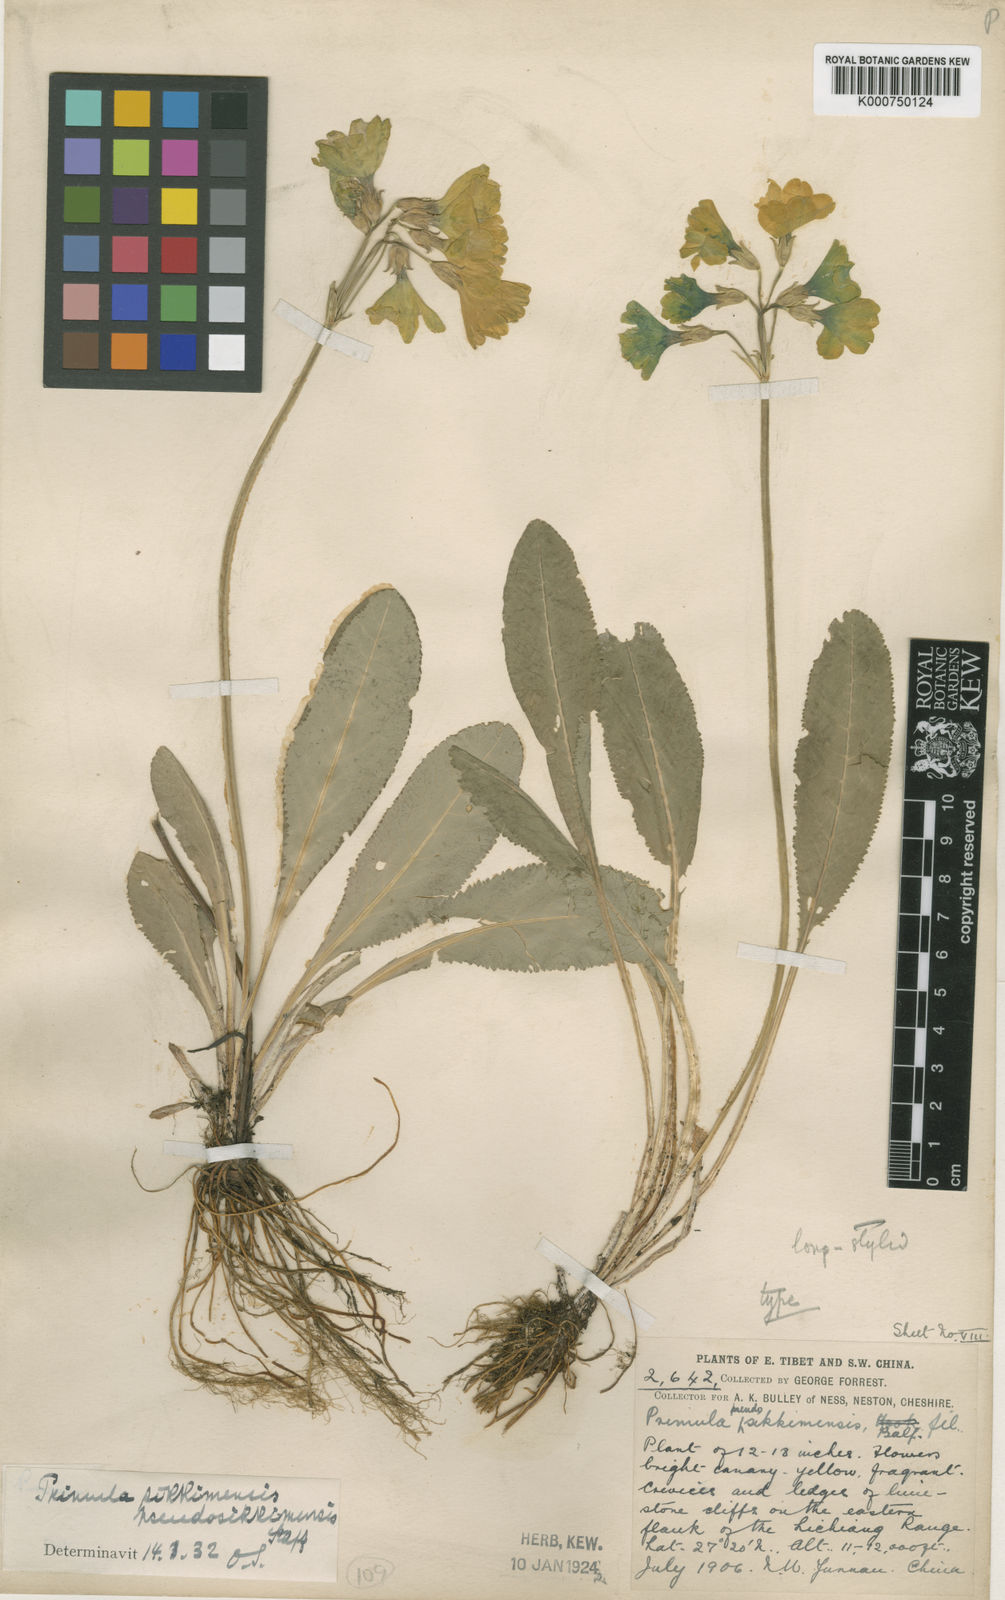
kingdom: Plantae
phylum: Tracheophyta
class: Magnoliopsida
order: Ericales
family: Primulaceae
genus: Primula
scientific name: Primula sikkimensis
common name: Sikkim cowslip
